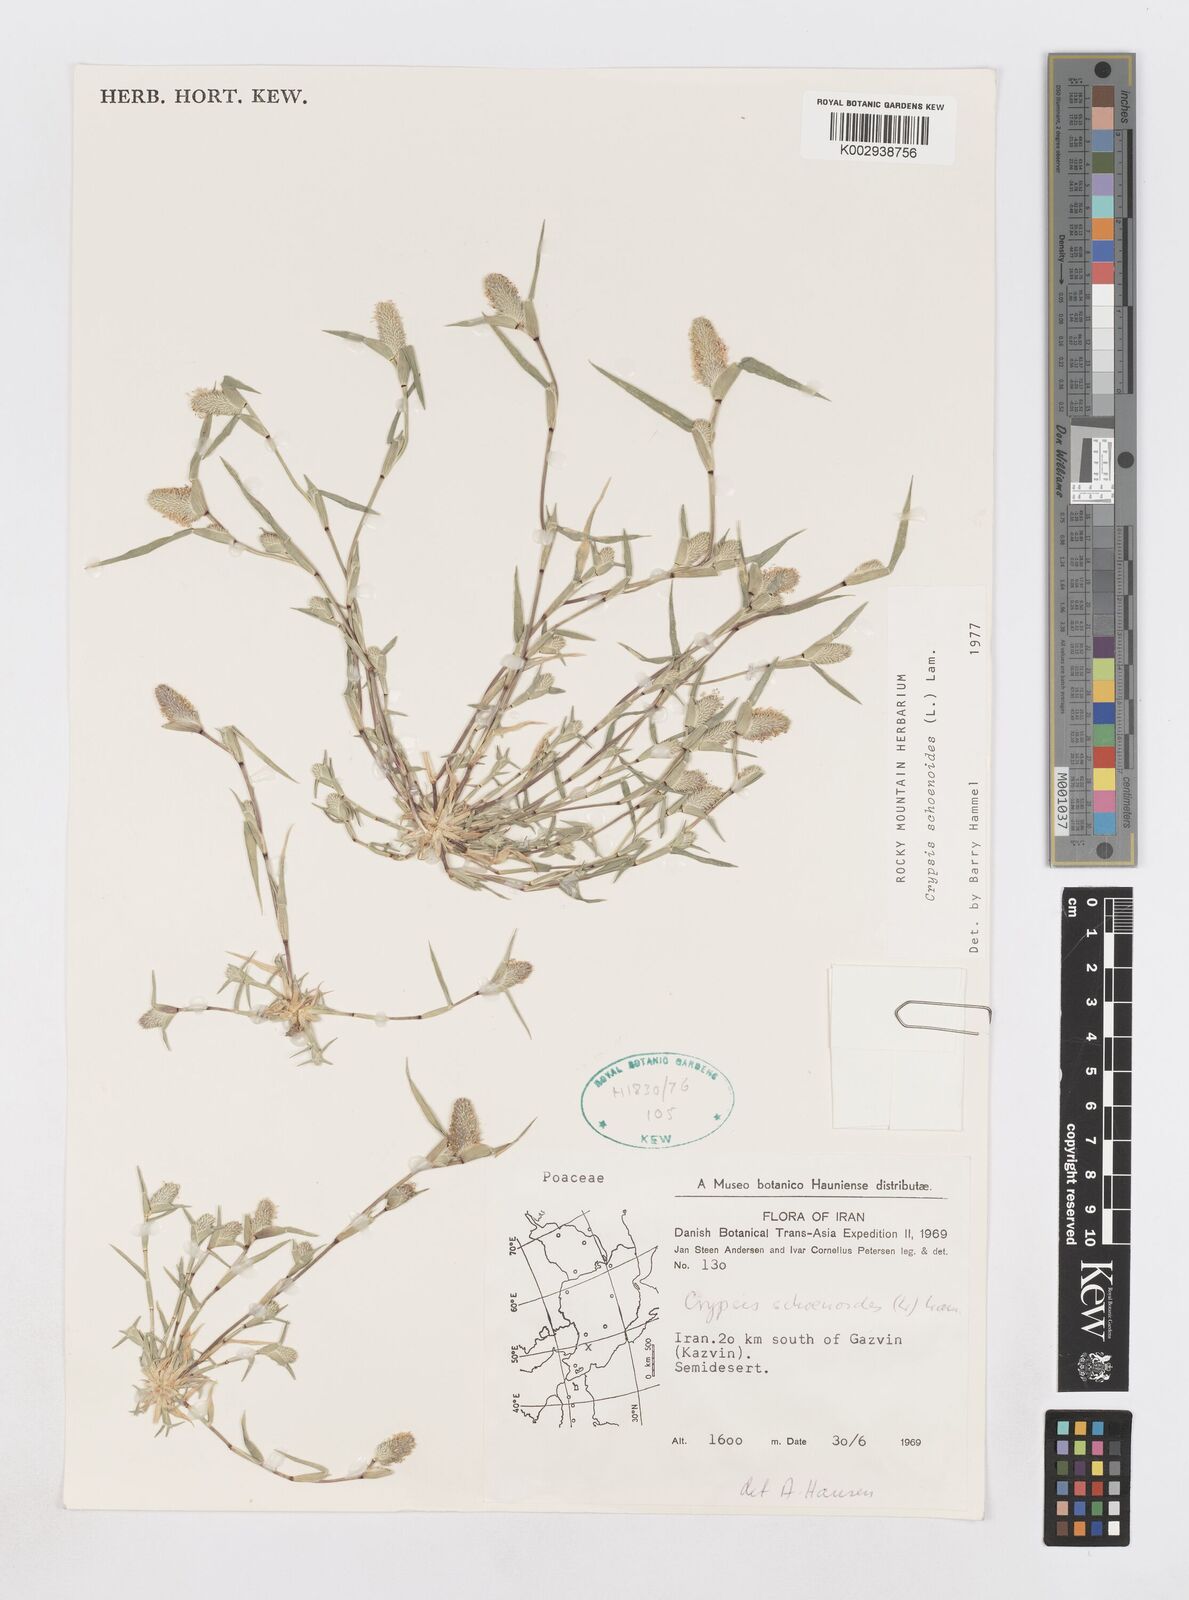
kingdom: Plantae
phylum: Tracheophyta
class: Liliopsida
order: Poales
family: Poaceae
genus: Sporobolus
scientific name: Sporobolus schoenoides
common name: Rush-like timothy
